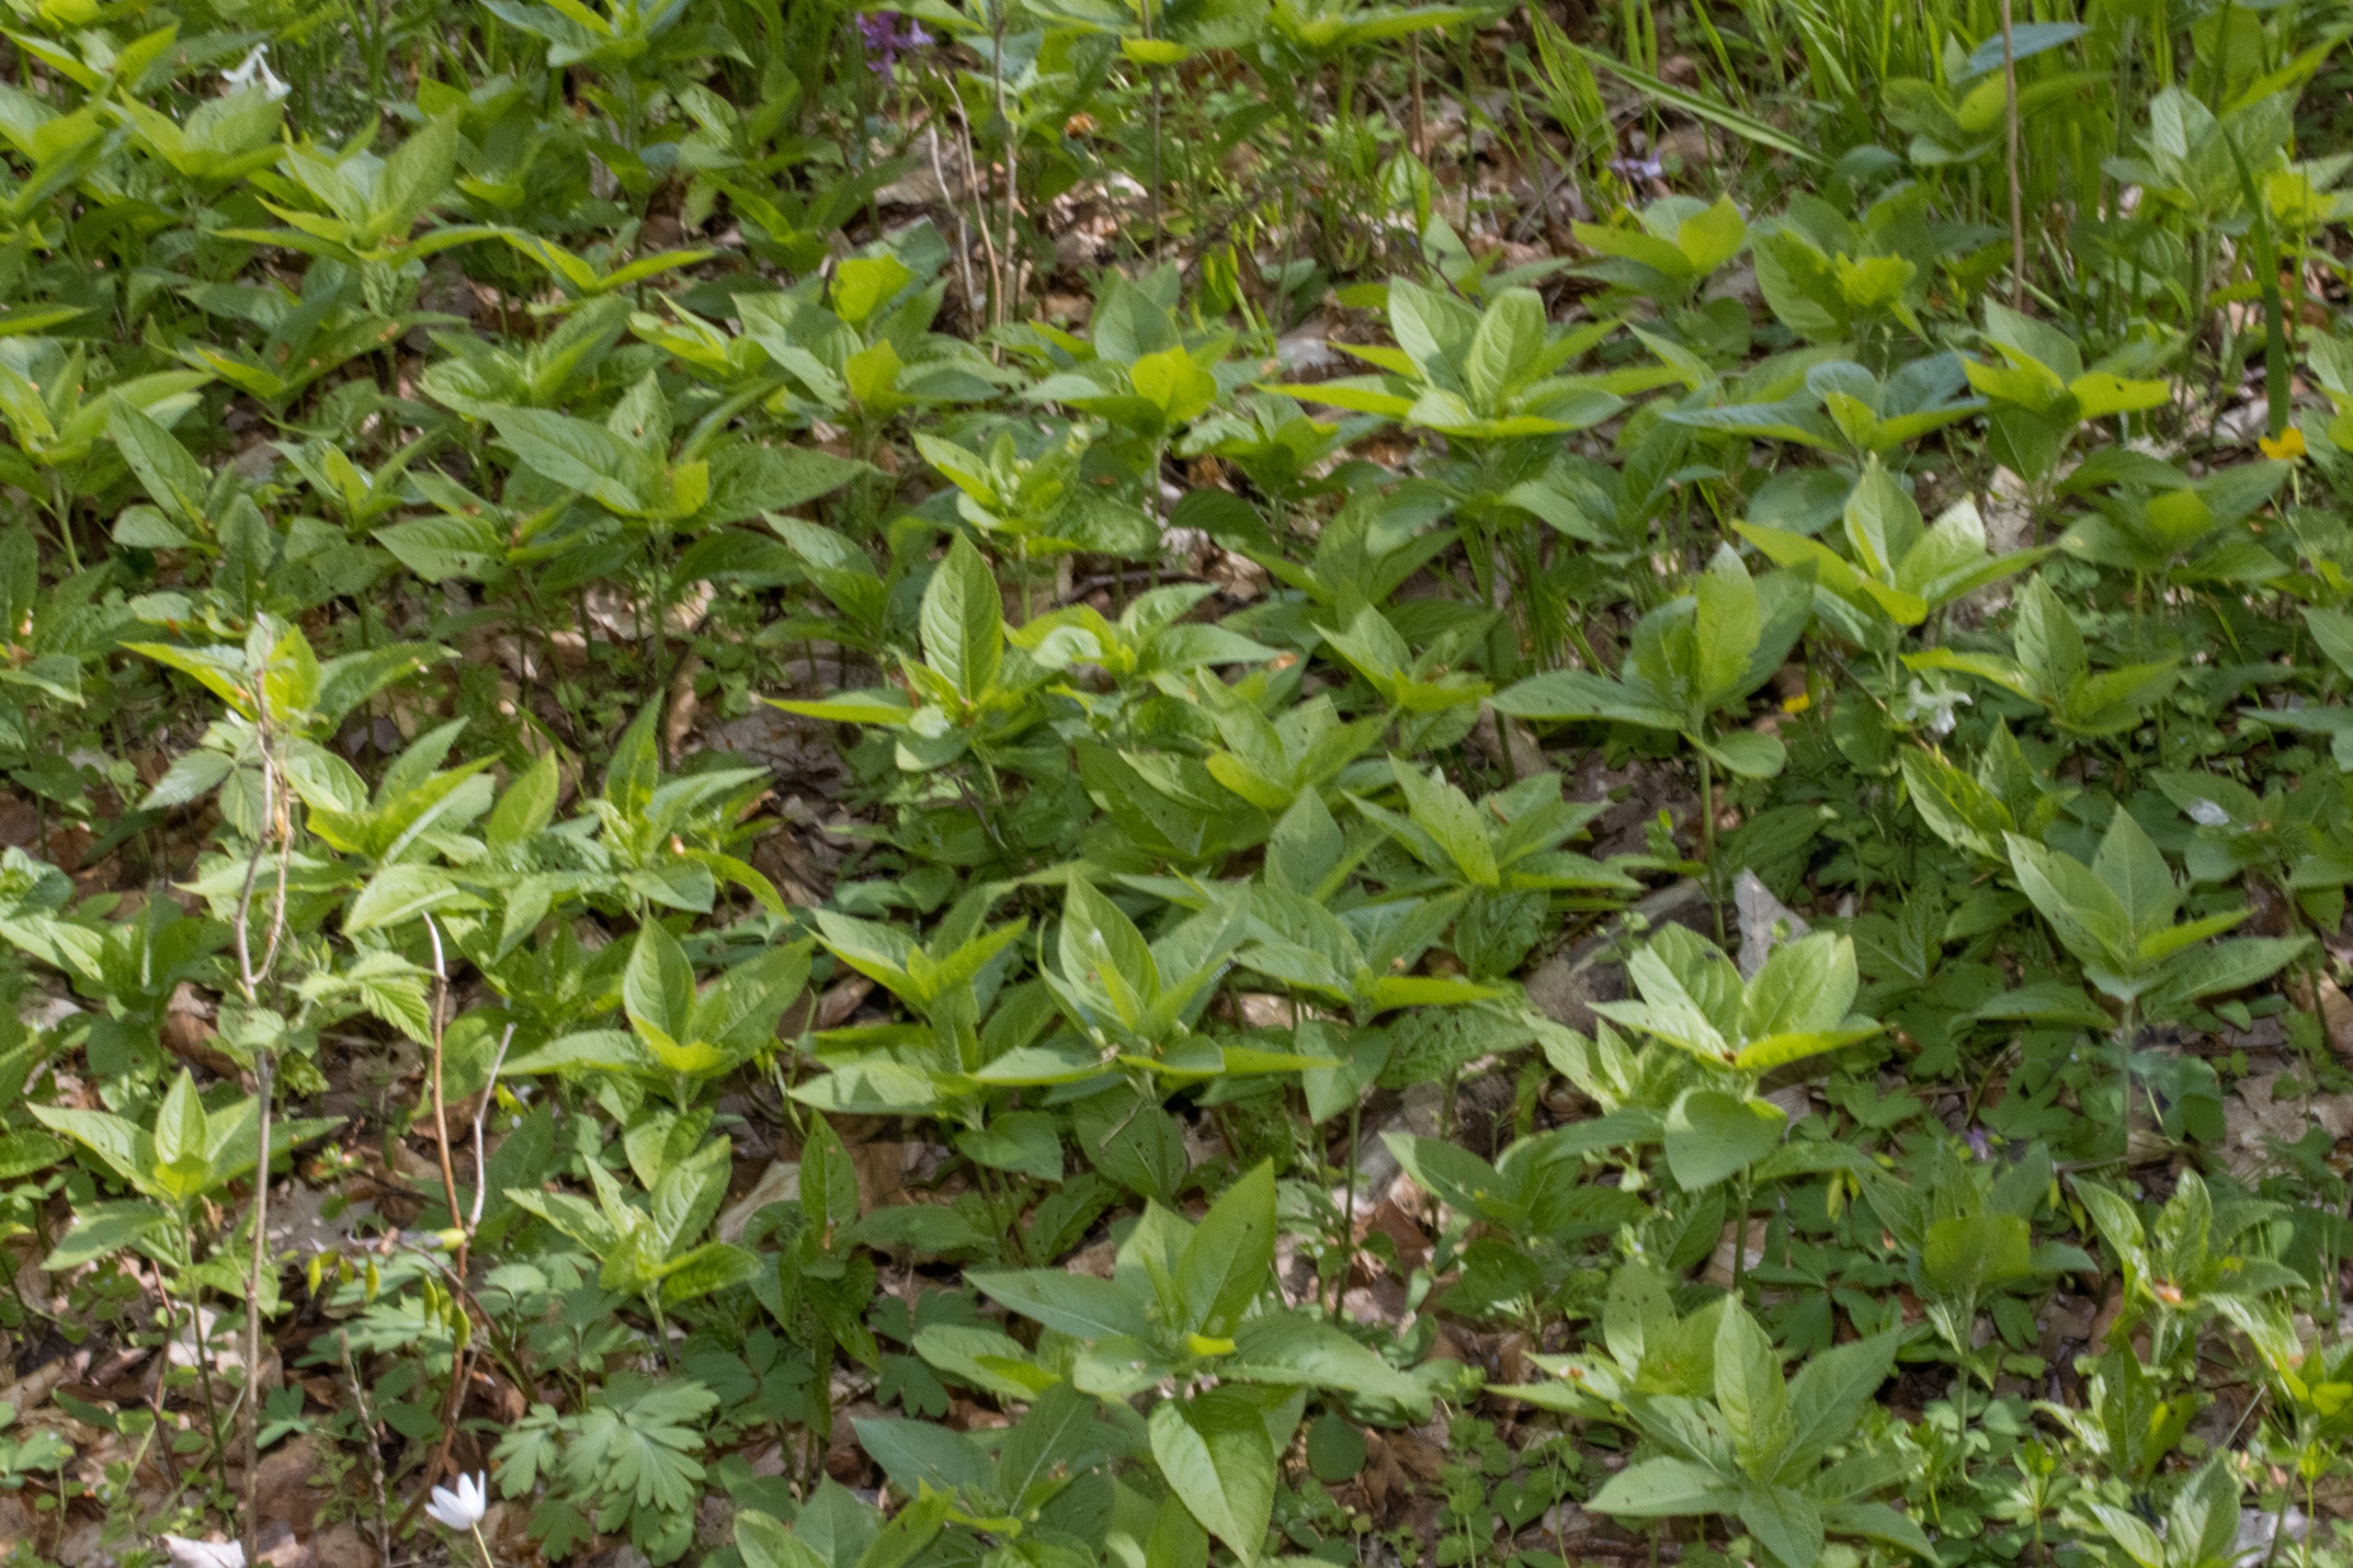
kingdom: Plantae
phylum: Tracheophyta
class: Magnoliopsida
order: Malpighiales
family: Euphorbiaceae
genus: Mercurialis
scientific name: Mercurialis perennis
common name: Almindelig bingelurt
